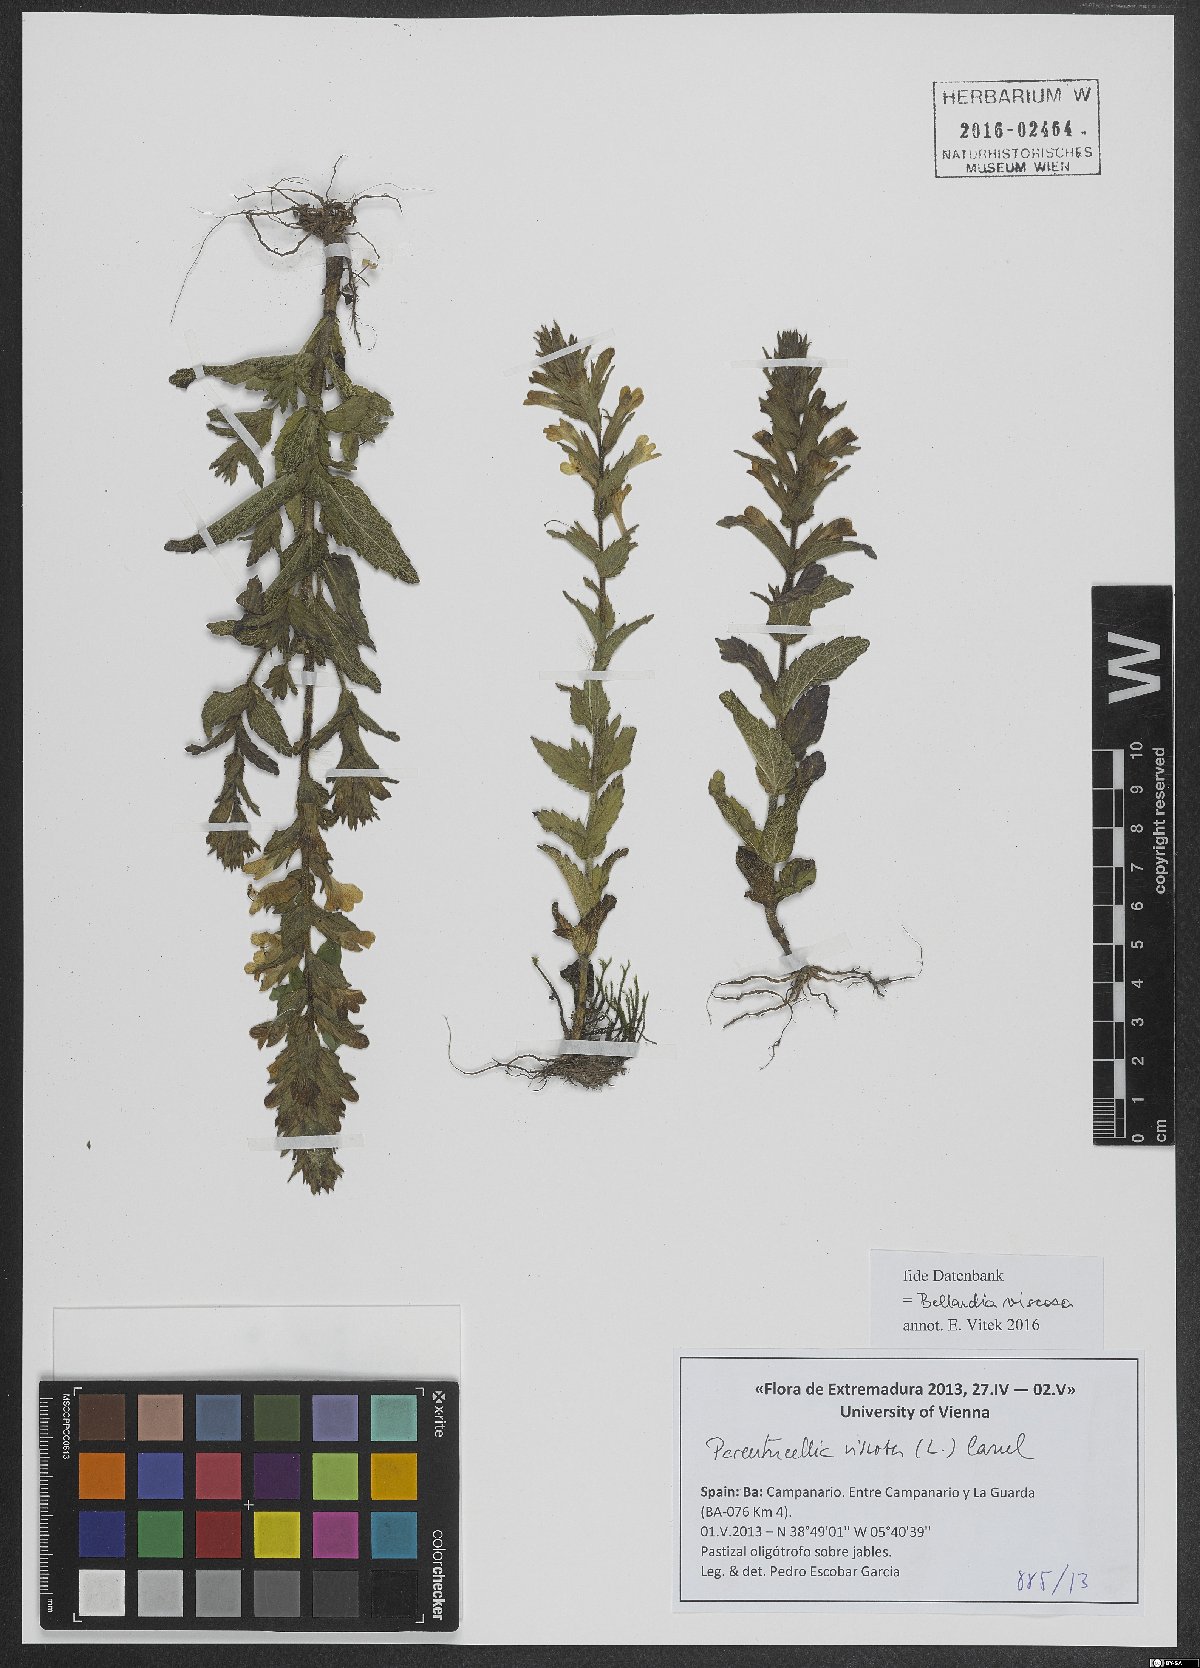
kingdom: Plantae
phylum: Tracheophyta
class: Magnoliopsida
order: Lamiales
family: Orobanchaceae
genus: Bellardia
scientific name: Bellardia viscosa
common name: Sticky parentucellia
